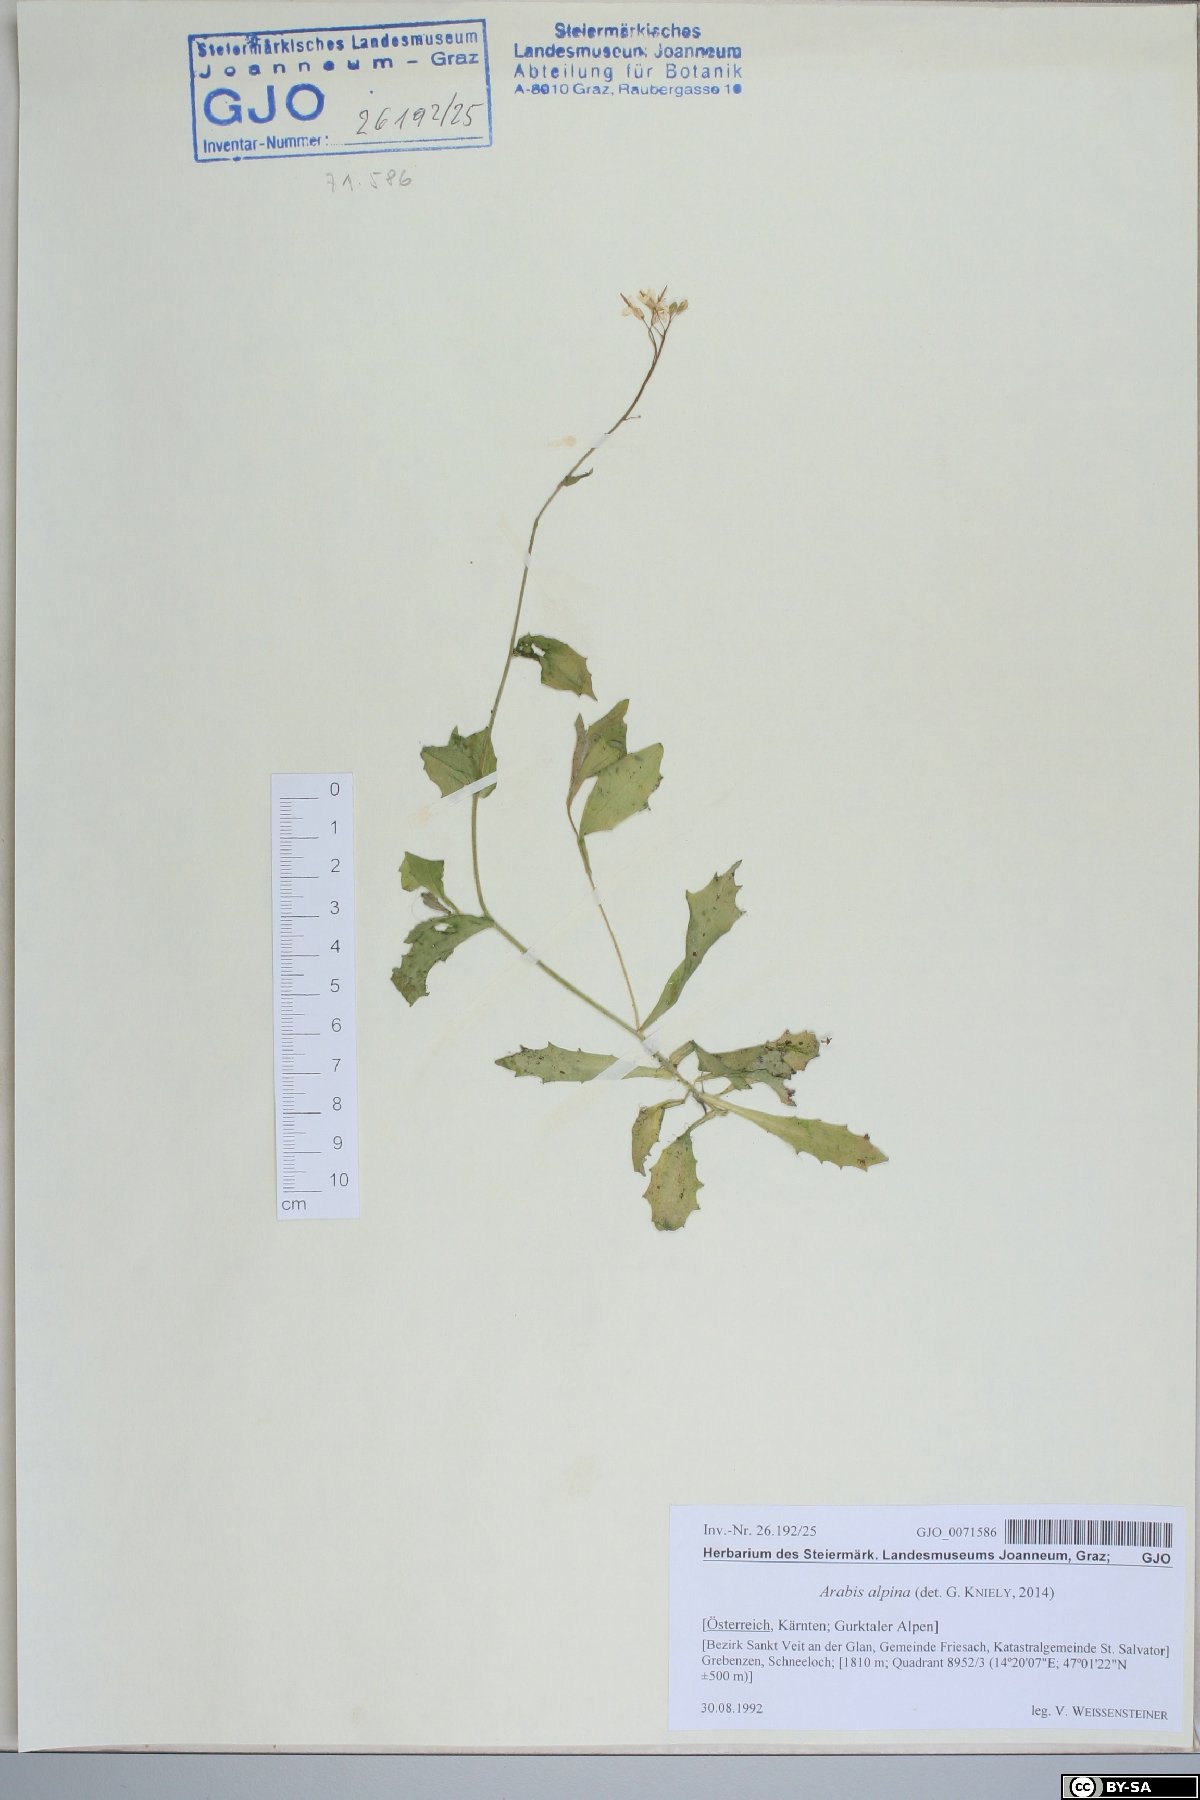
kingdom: Plantae
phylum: Tracheophyta
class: Magnoliopsida
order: Brassicales
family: Brassicaceae
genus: Arabis
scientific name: Arabis alpina
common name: Alpine rock-cress
